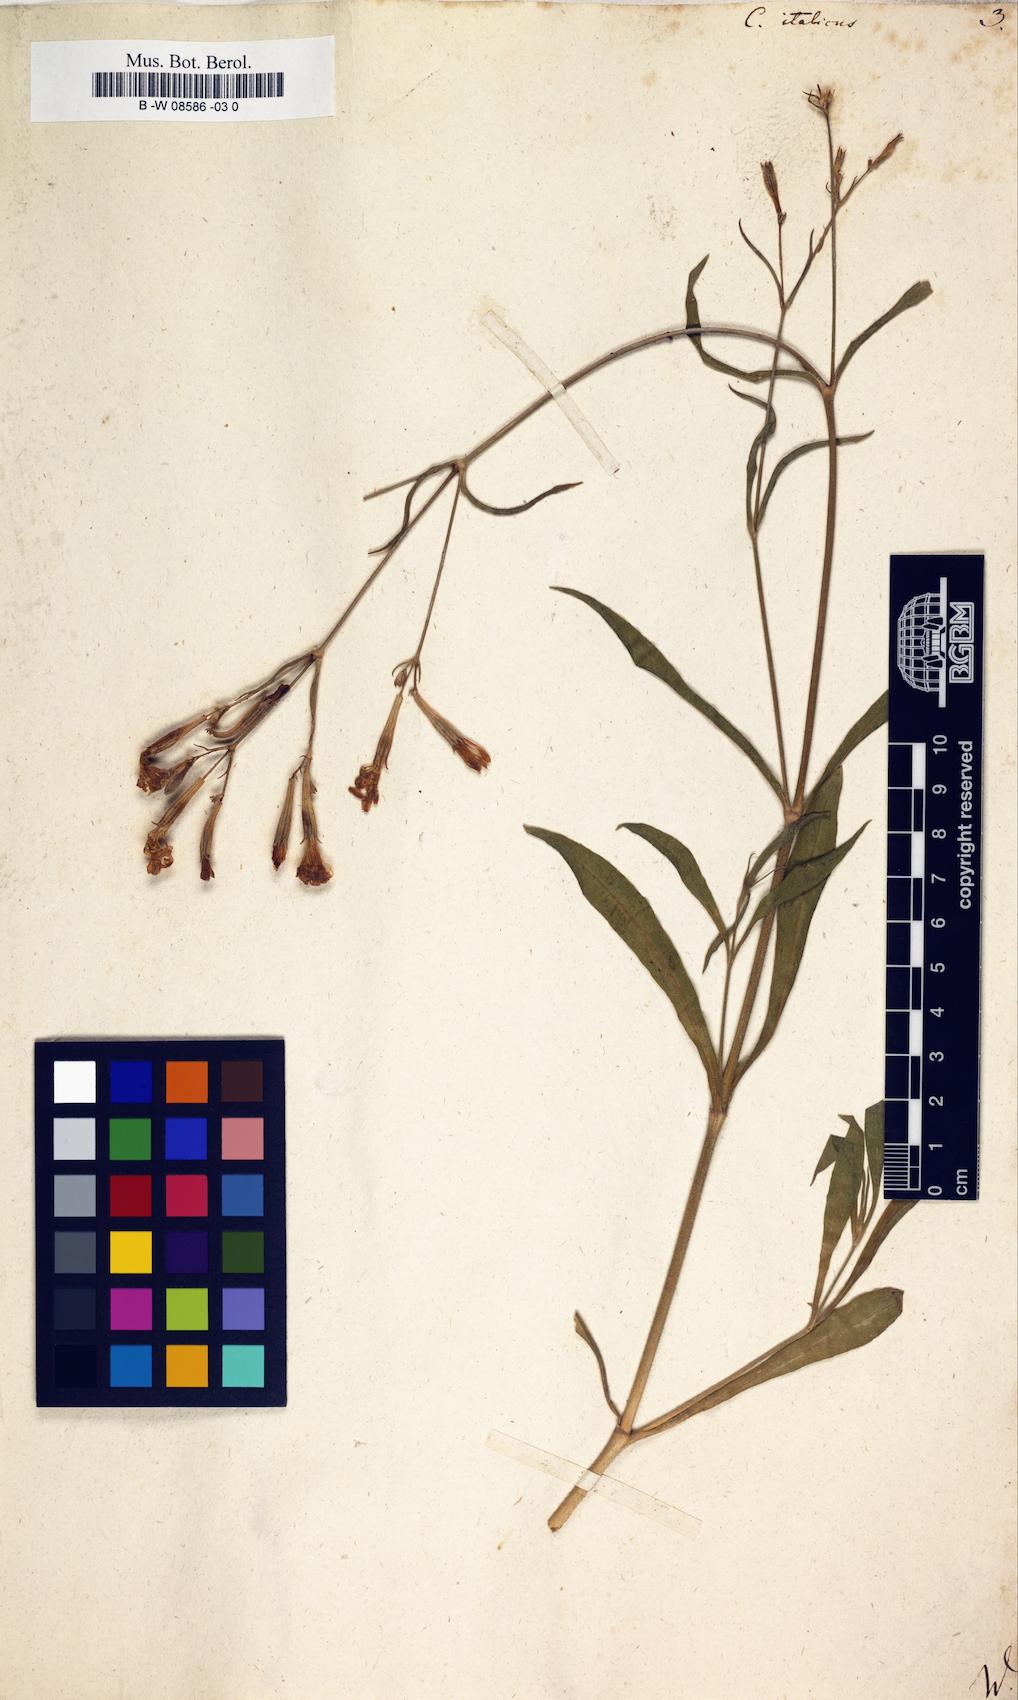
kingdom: Plantae
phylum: Tracheophyta
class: Magnoliopsida
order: Caryophyllales
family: Caryophyllaceae
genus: Silene
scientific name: Silene italica
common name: Italian catchfly
